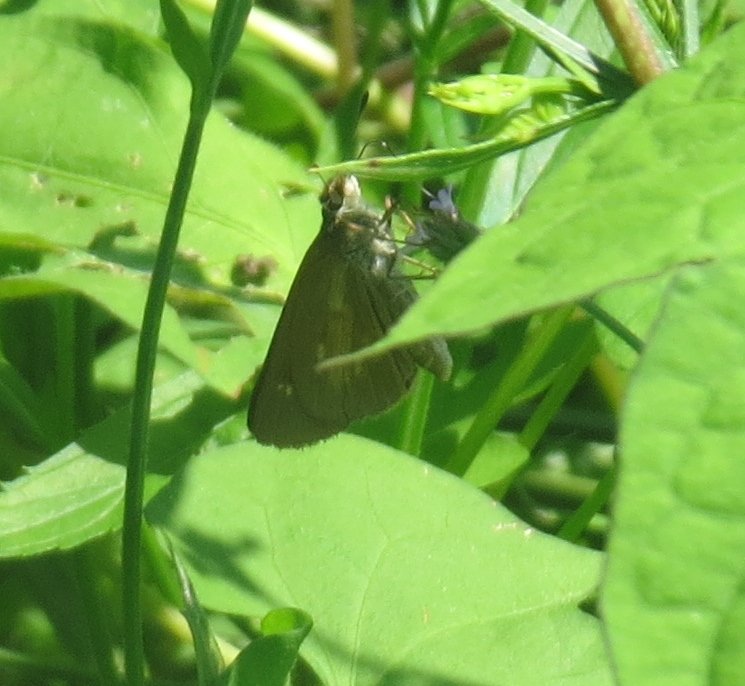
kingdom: Animalia
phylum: Arthropoda
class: Insecta
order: Lepidoptera
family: Hesperiidae
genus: Poanes
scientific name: Poanes viator
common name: Broad-winged Skipper
